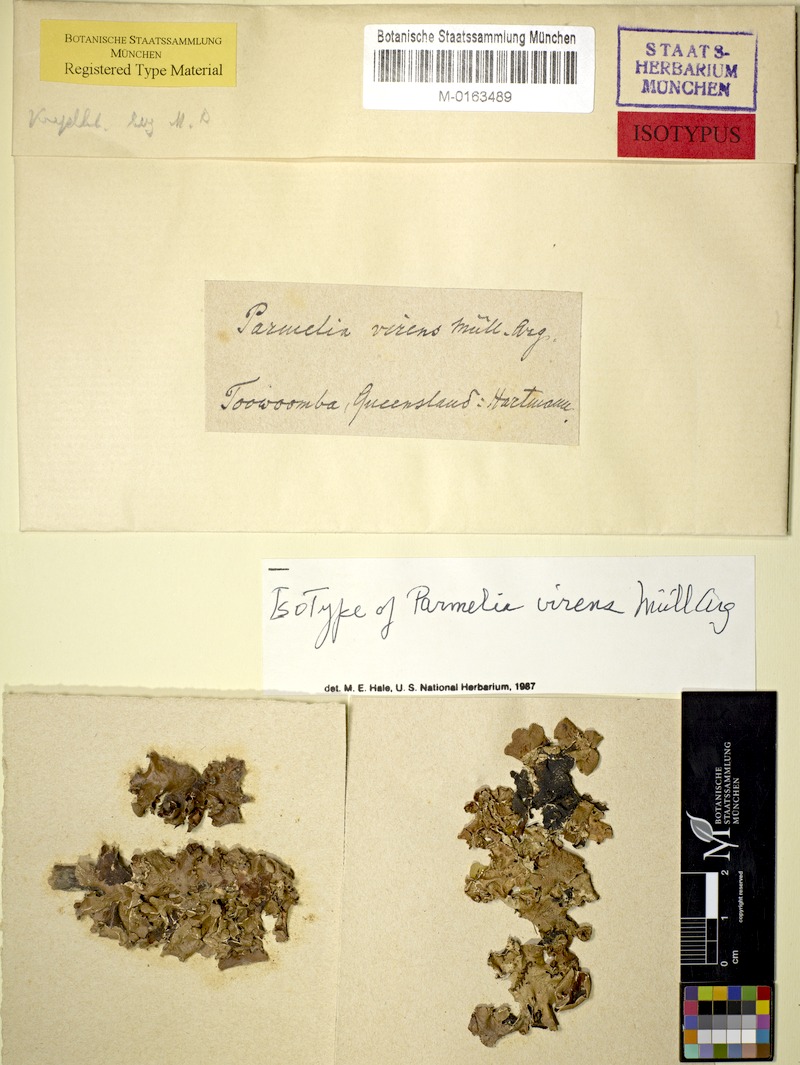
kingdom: Fungi
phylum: Ascomycota
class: Lecanoromycetes
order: Lecanorales
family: Parmeliaceae
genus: Parmotrema
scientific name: Parmotrema reparatum
